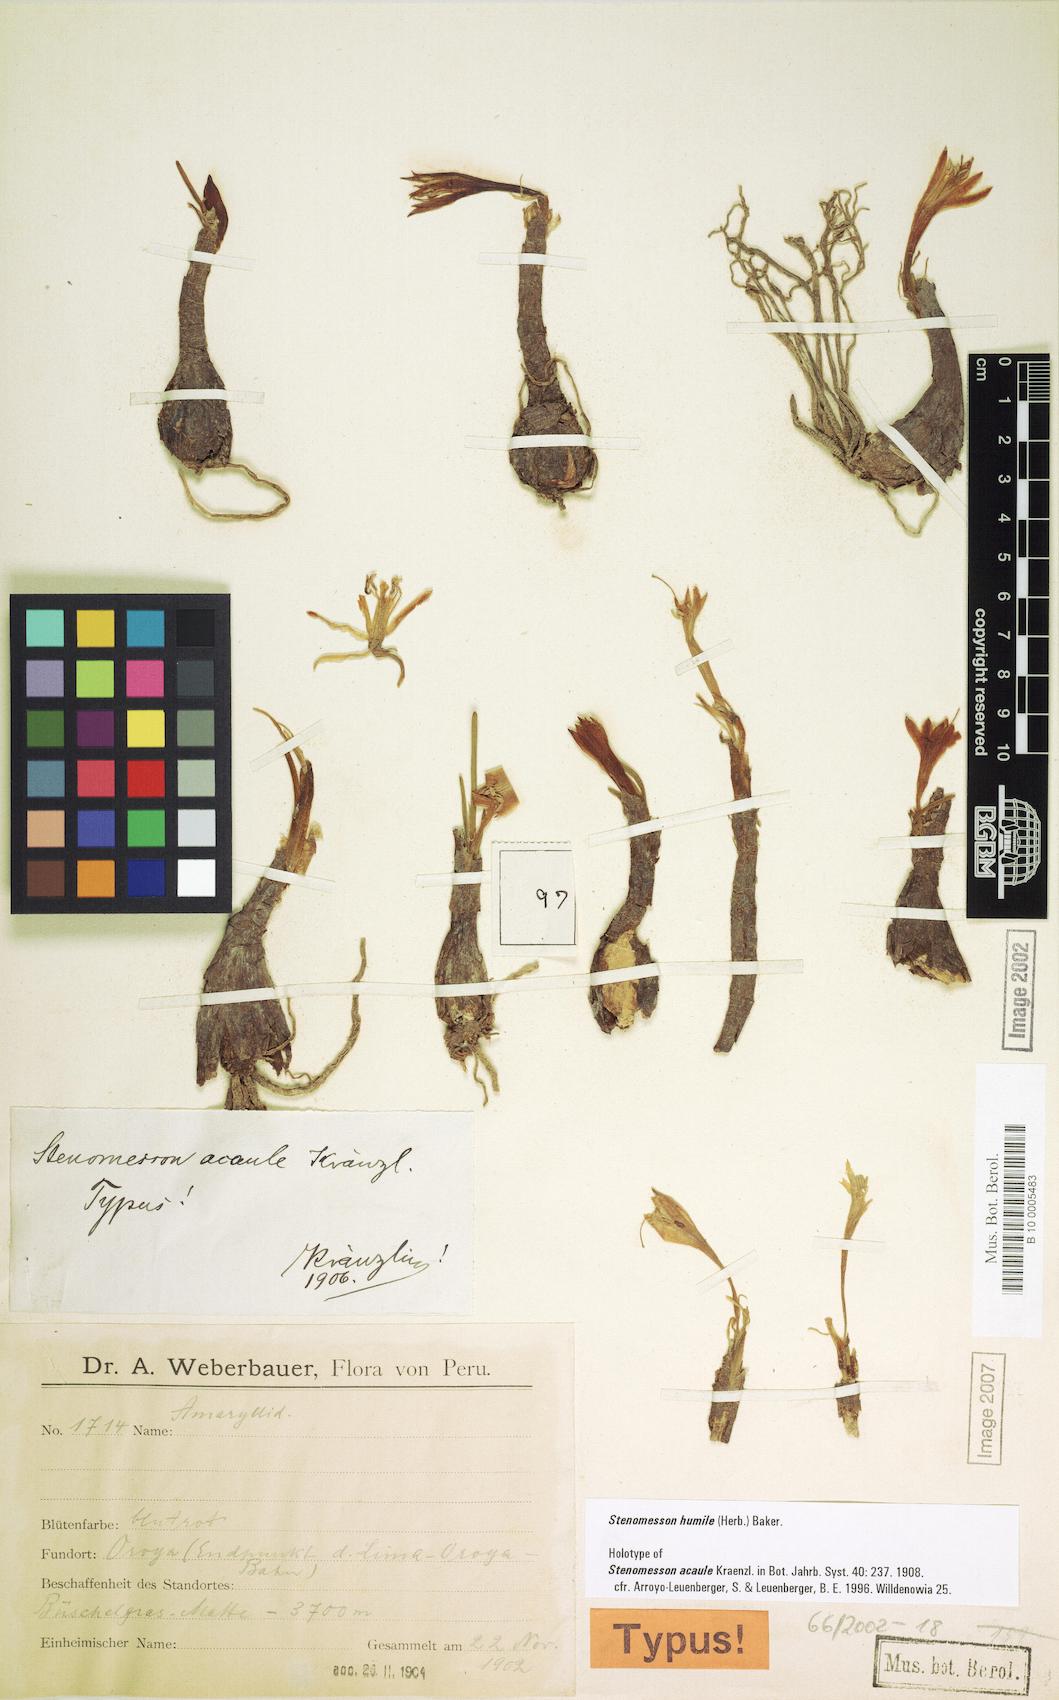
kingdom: Plantae
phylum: Tracheophyta
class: Liliopsida
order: Asparagales
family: Amaryllidaceae
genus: Clinanthus
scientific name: Clinanthus humilis
